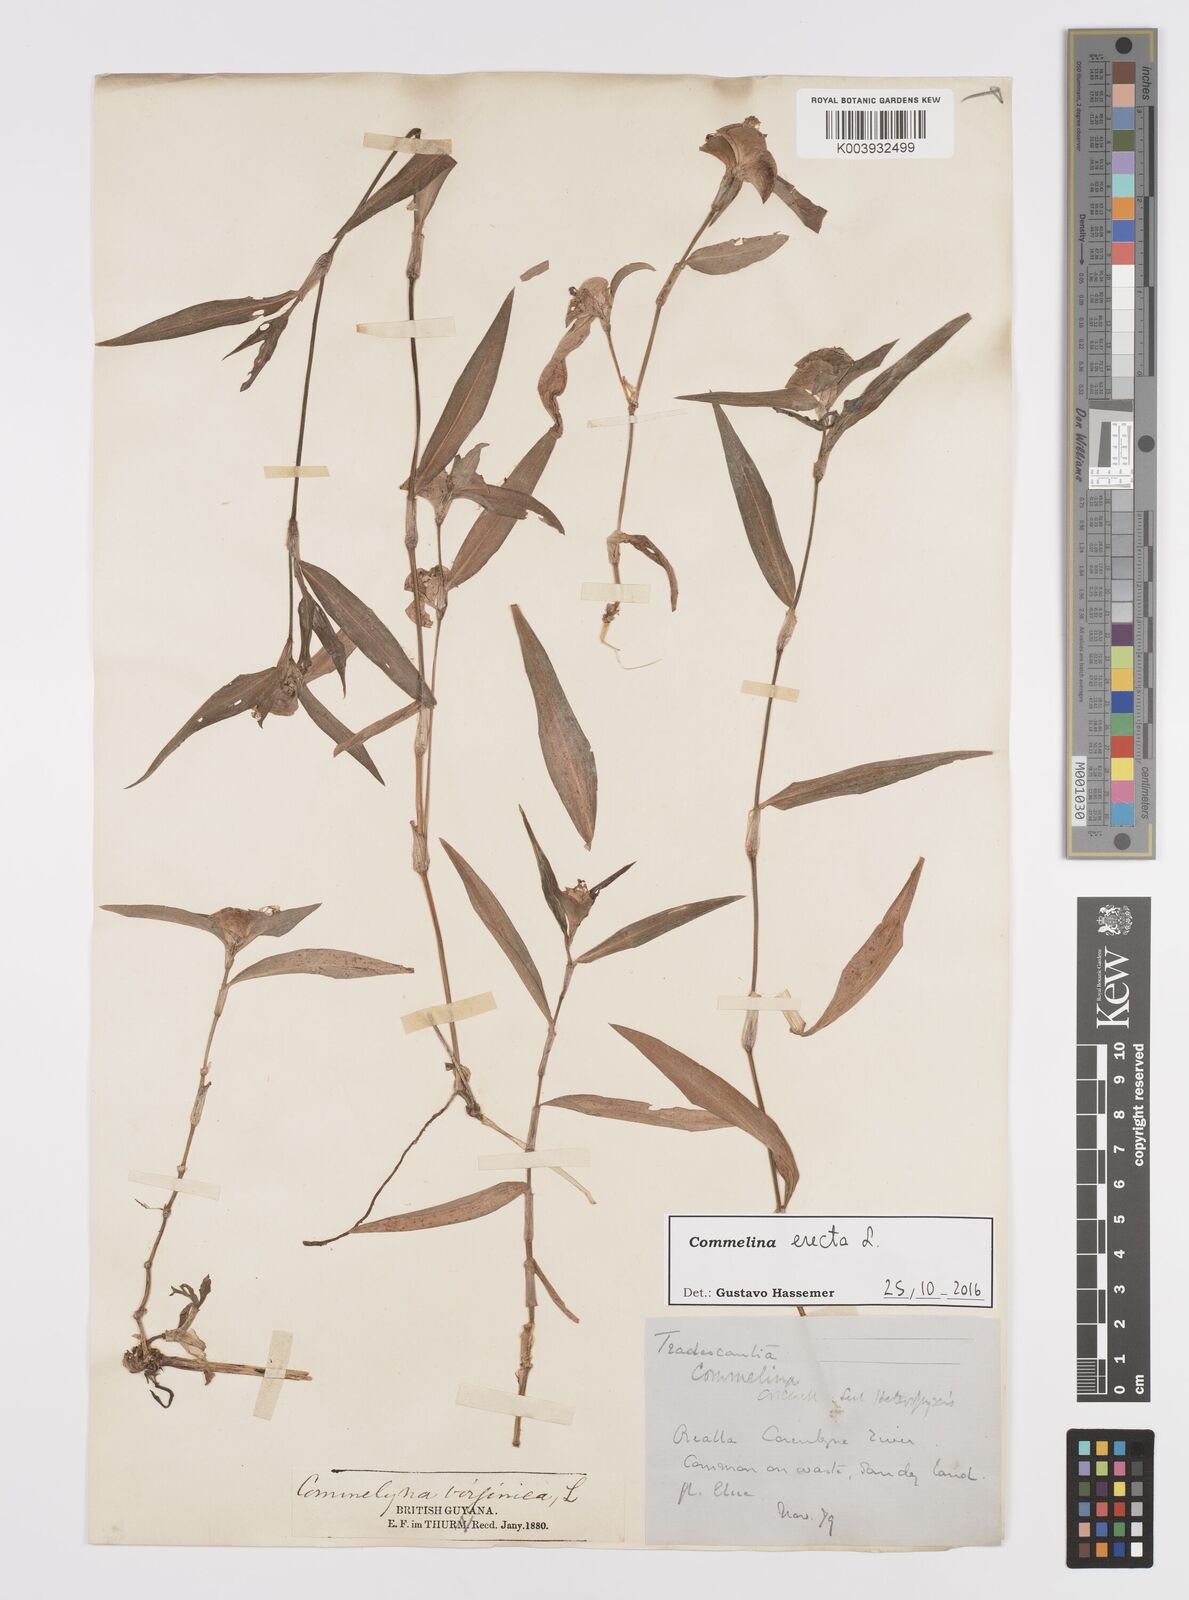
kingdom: Plantae
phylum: Tracheophyta
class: Liliopsida
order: Commelinales
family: Commelinaceae
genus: Commelina
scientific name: Commelina erecta
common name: Blousel blommetjie
